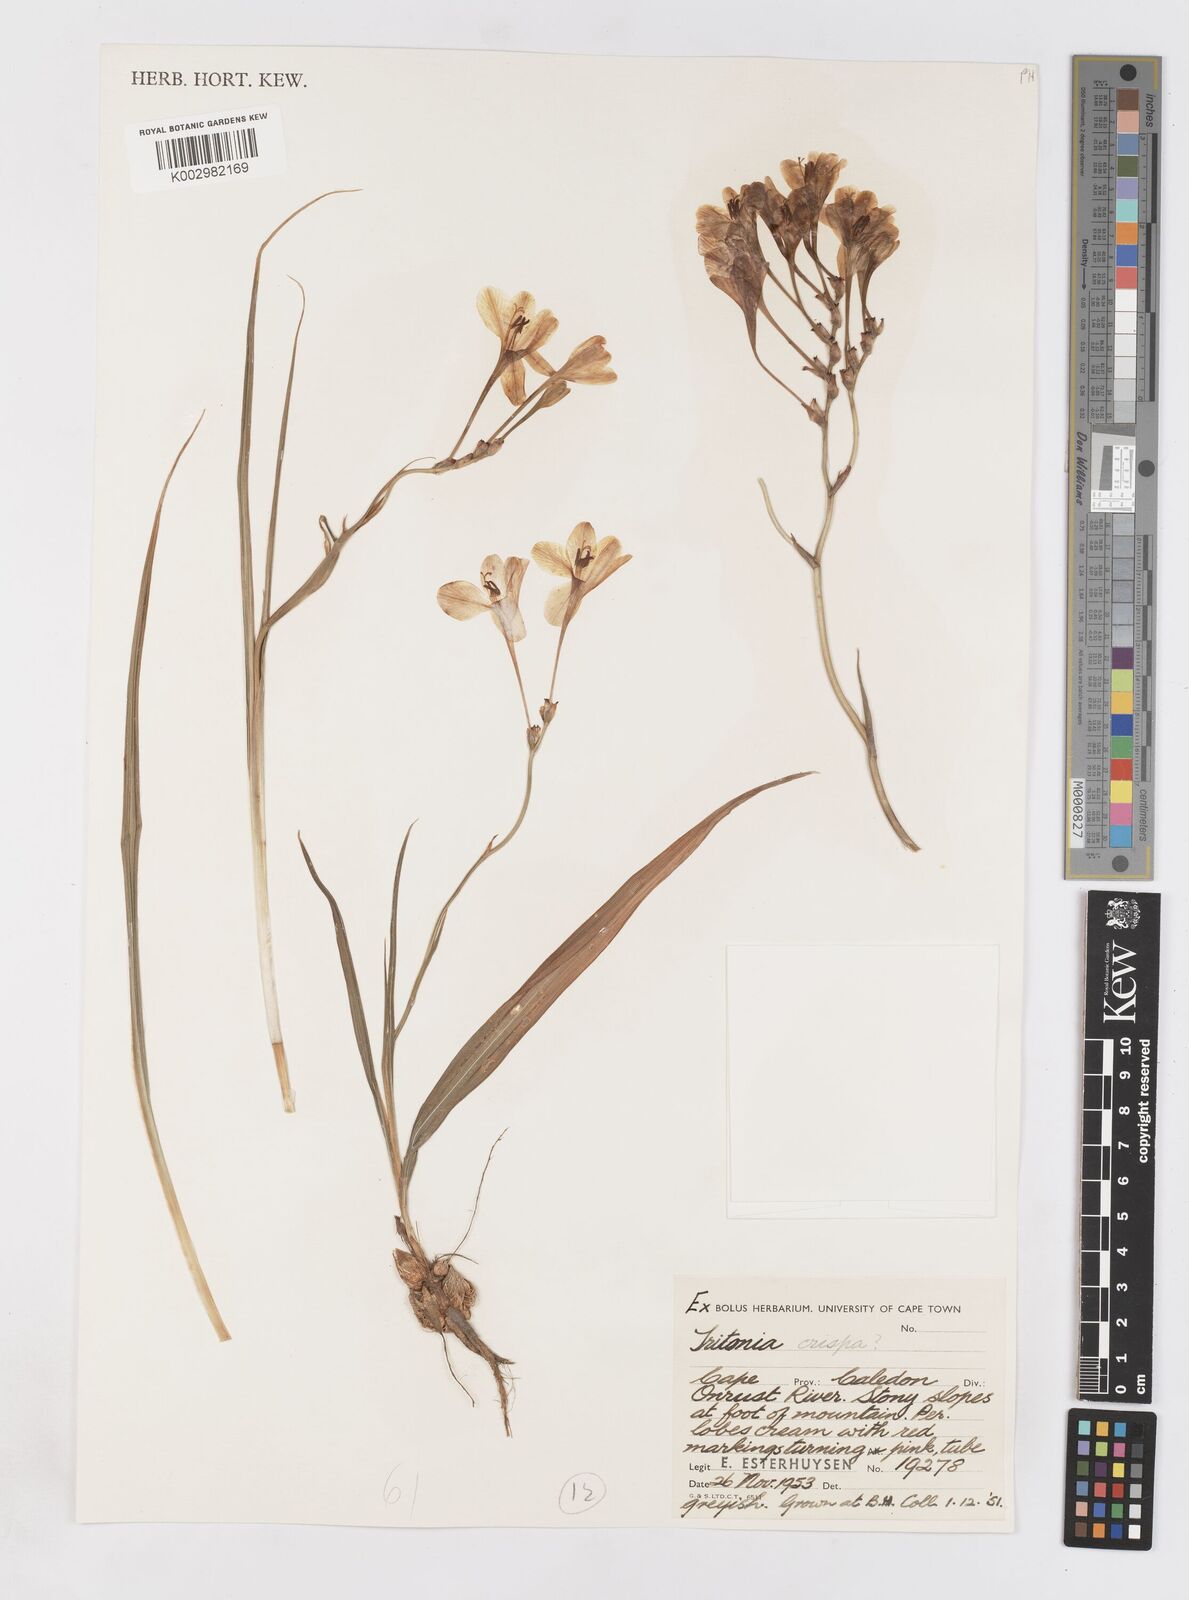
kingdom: Plantae
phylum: Tracheophyta
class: Liliopsida
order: Asparagales
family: Iridaceae
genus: Tritonia
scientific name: Tritonia undulata
